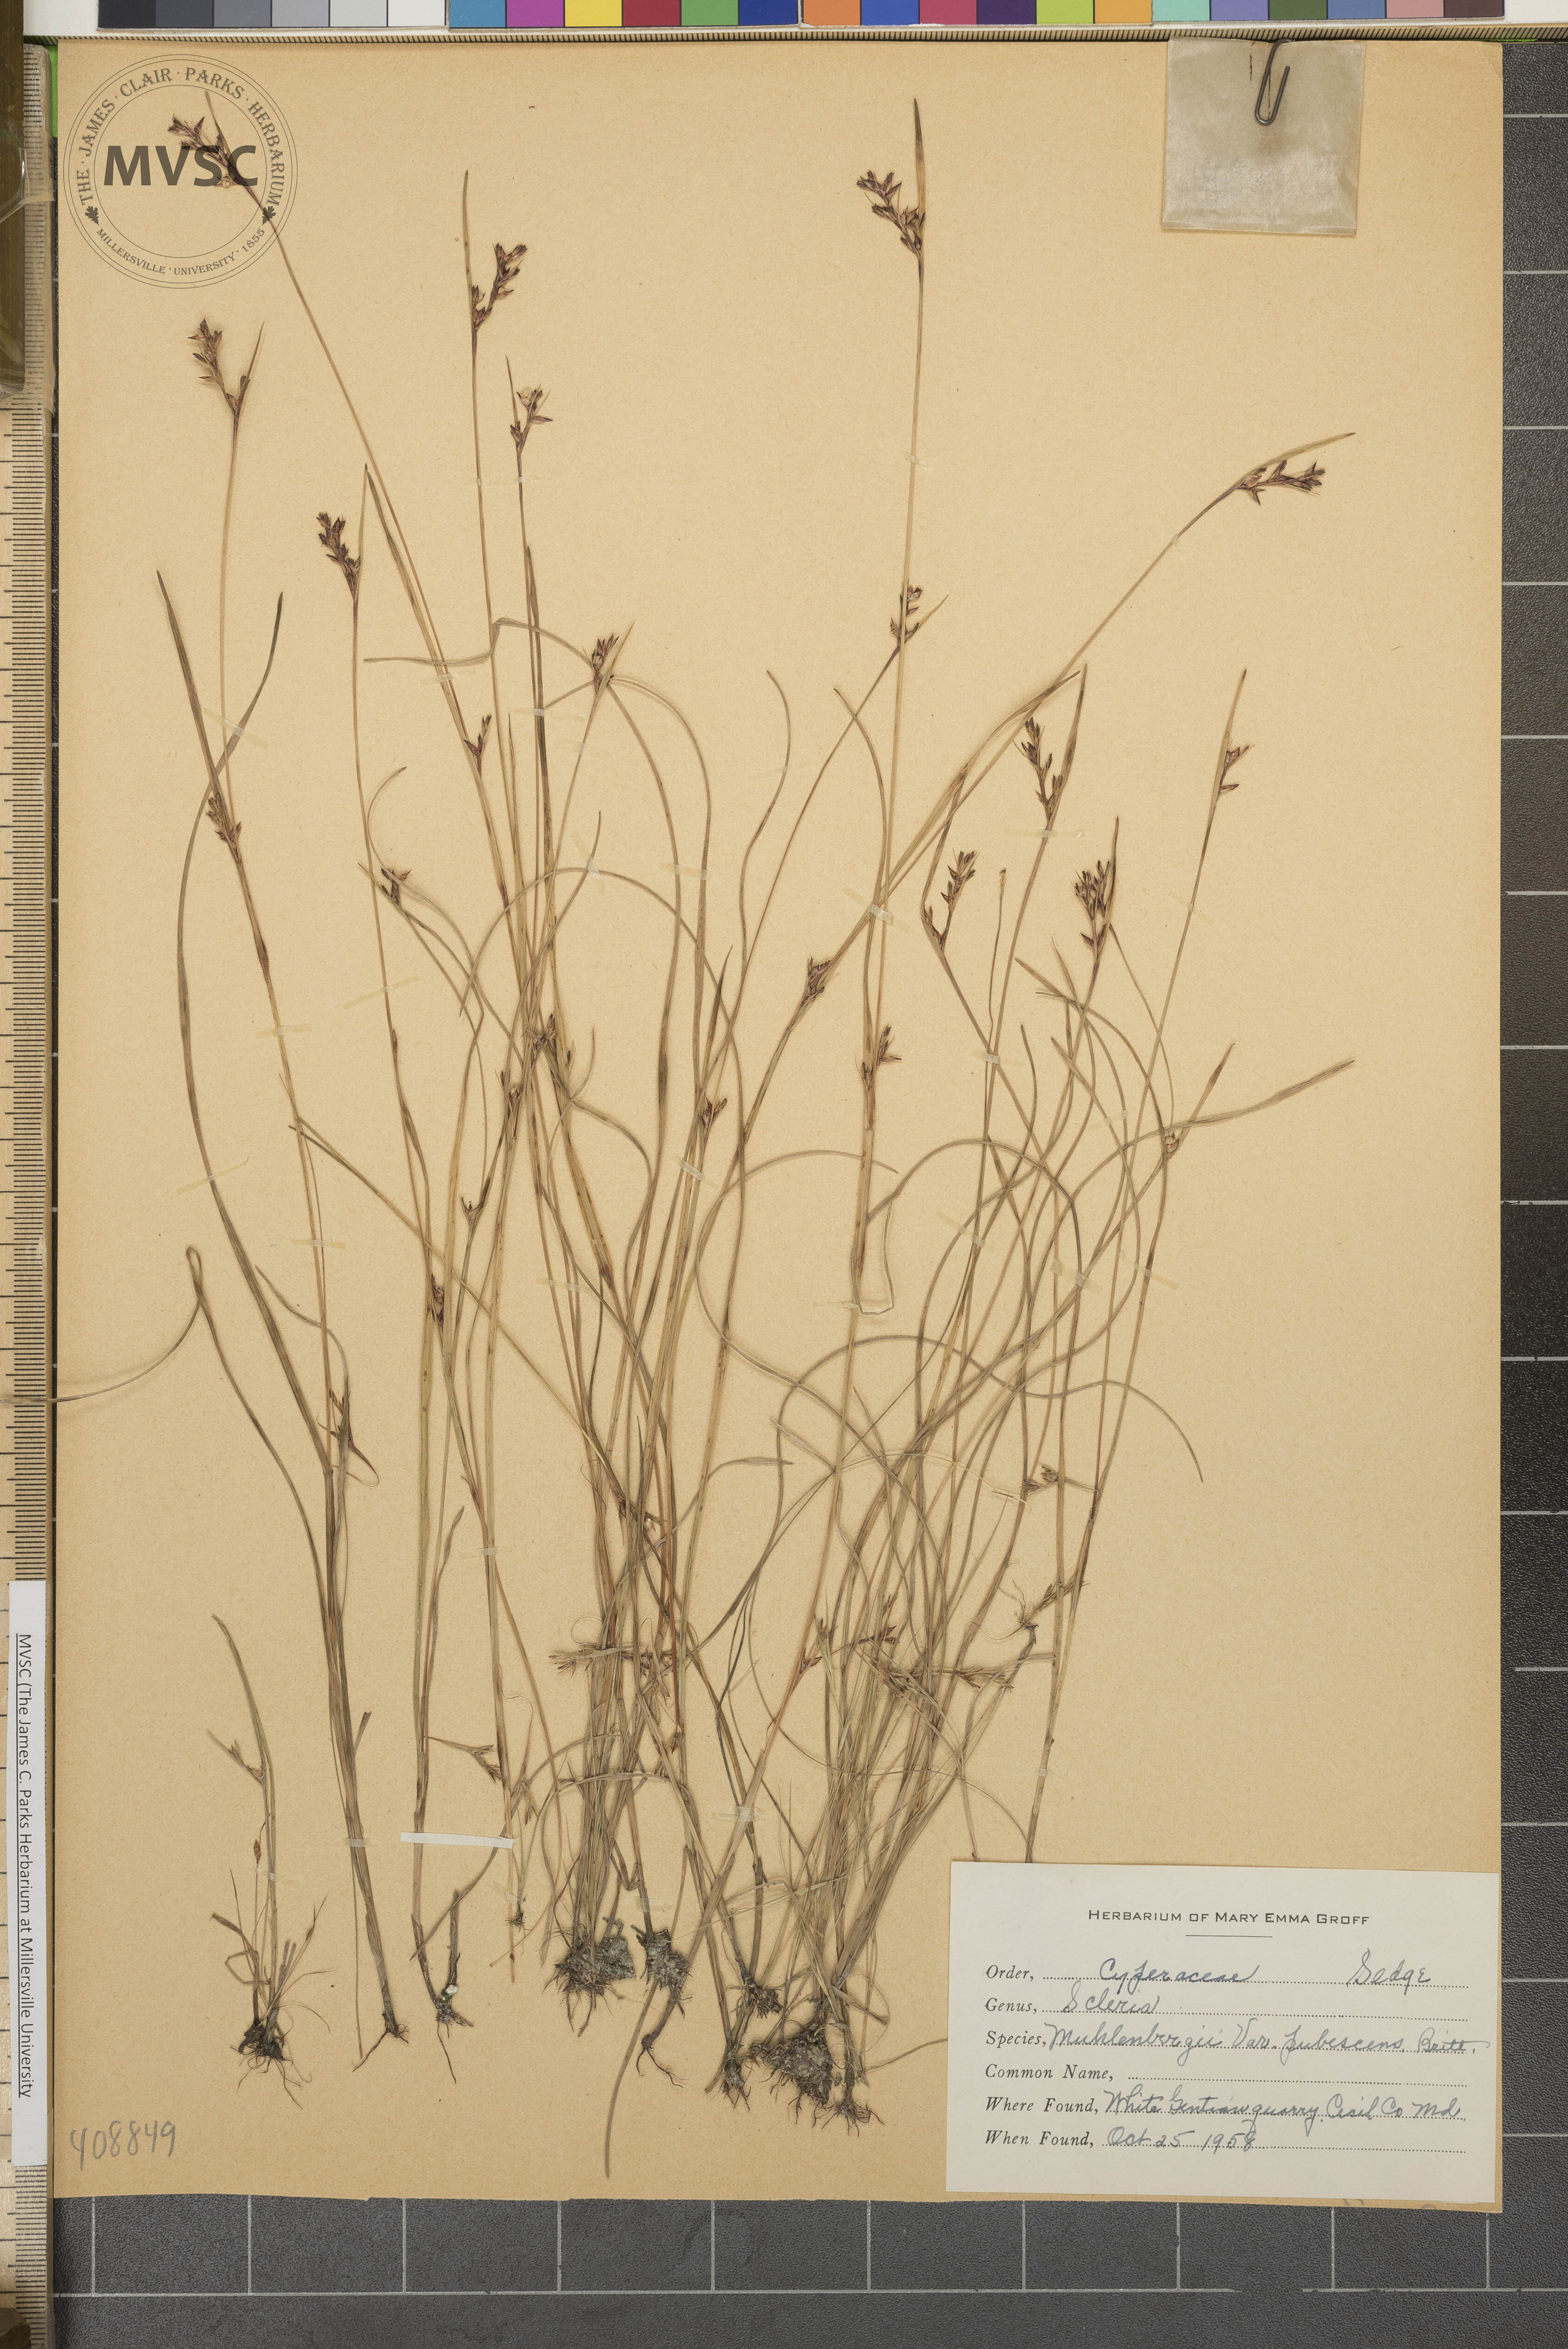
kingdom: Plantae
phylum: Tracheophyta
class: Liliopsida
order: Poales
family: Cyperaceae
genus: Scleria
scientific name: Scleria muehlenbergii
